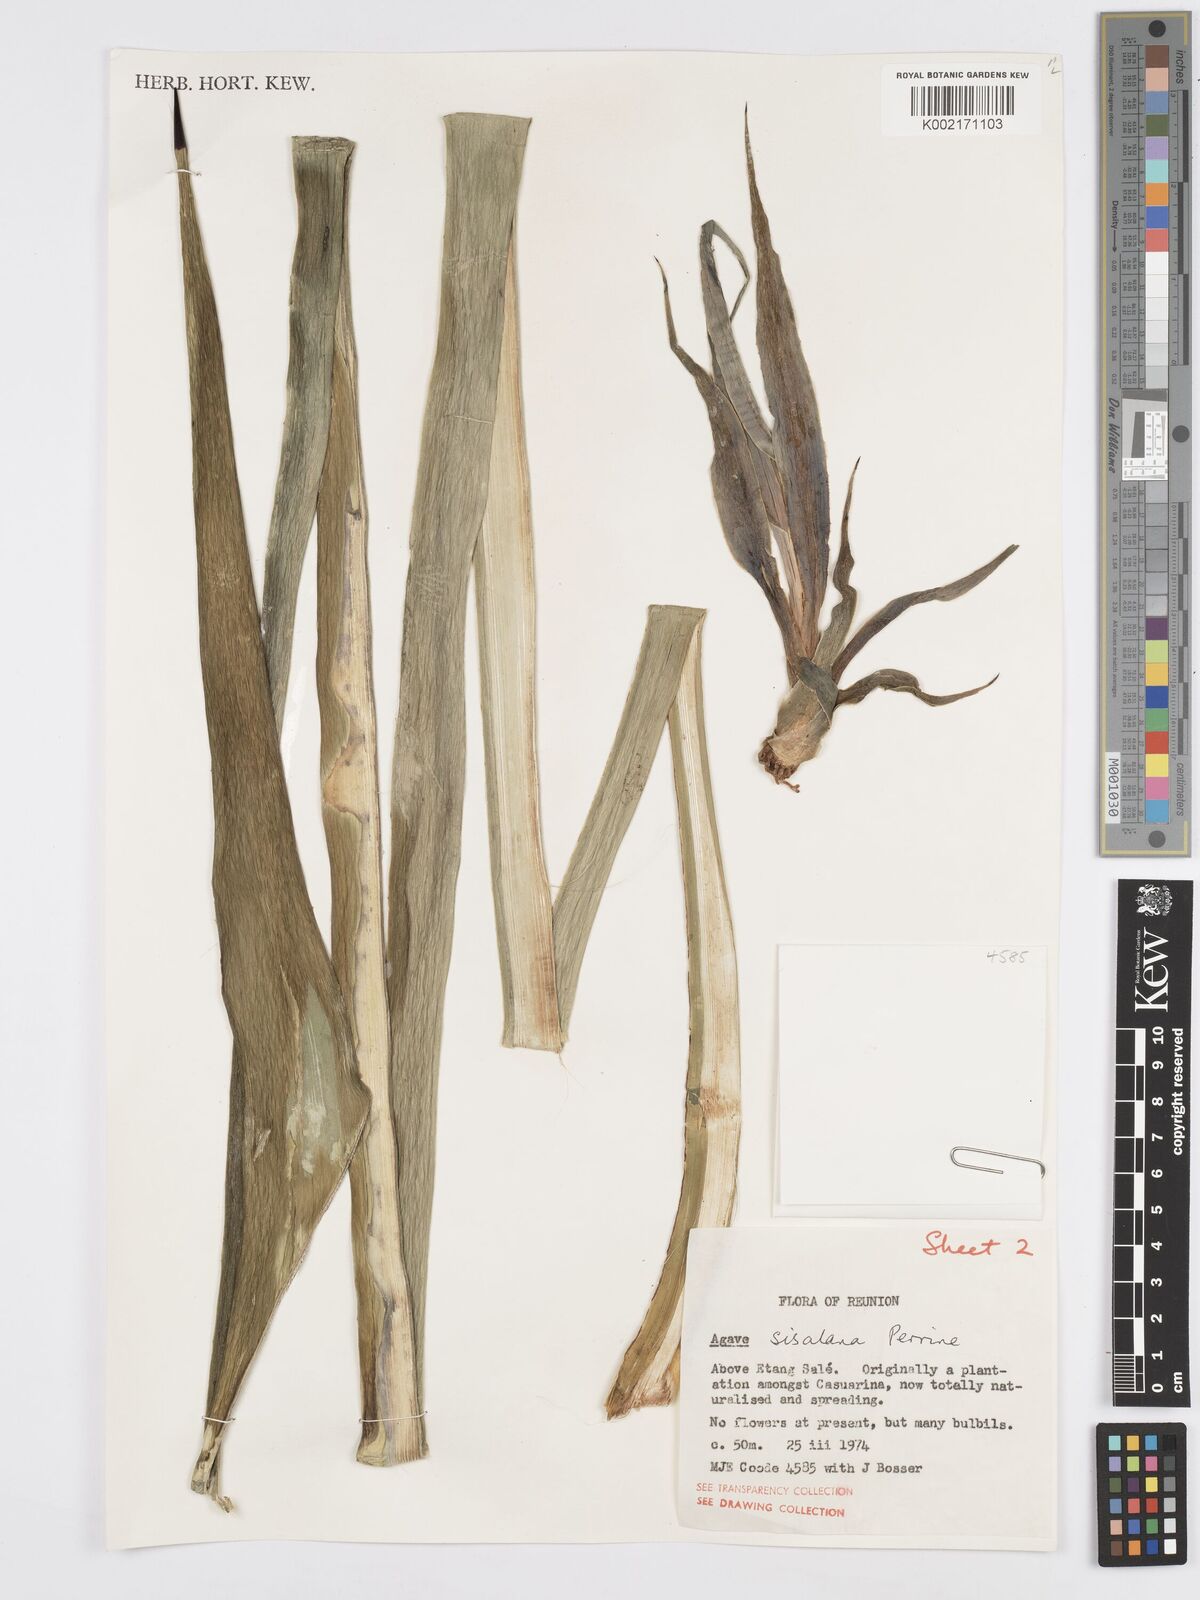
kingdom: Plantae
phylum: Tracheophyta
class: Liliopsida
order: Asparagales
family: Asparagaceae
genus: Agave
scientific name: Agave sisalana
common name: Sisal hemp
